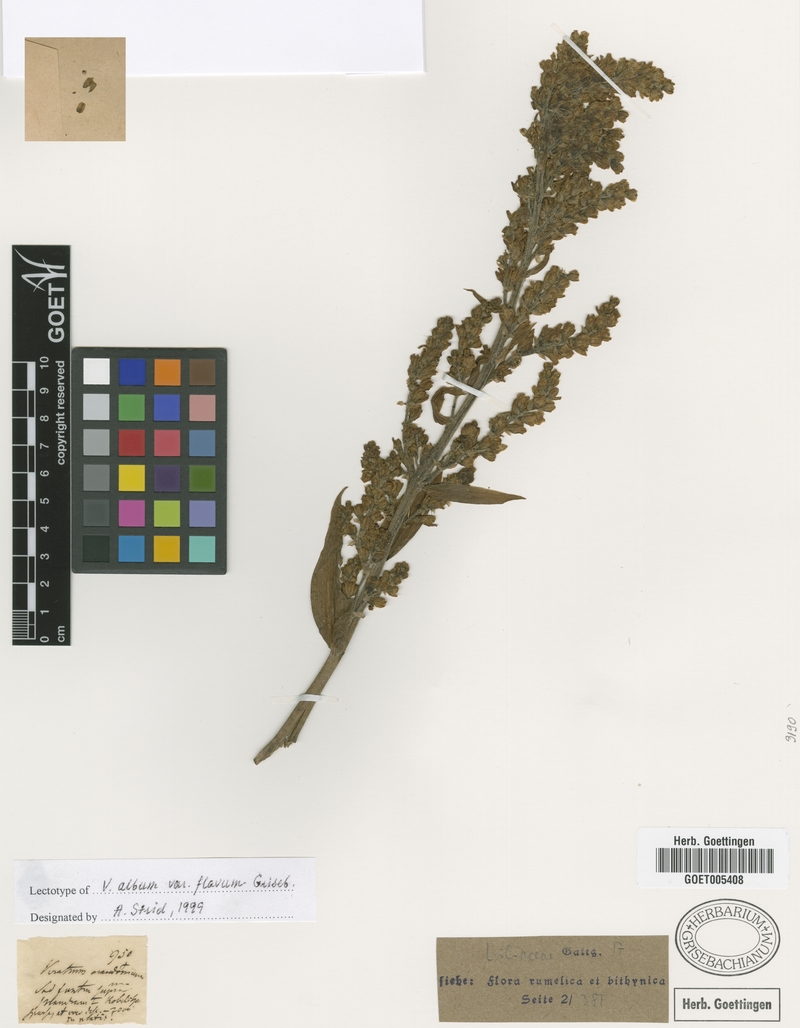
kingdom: Plantae
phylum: Tracheophyta
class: Liliopsida
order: Liliales
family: Melanthiaceae
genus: Veratrum
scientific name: Veratrum album
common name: White veratrum
